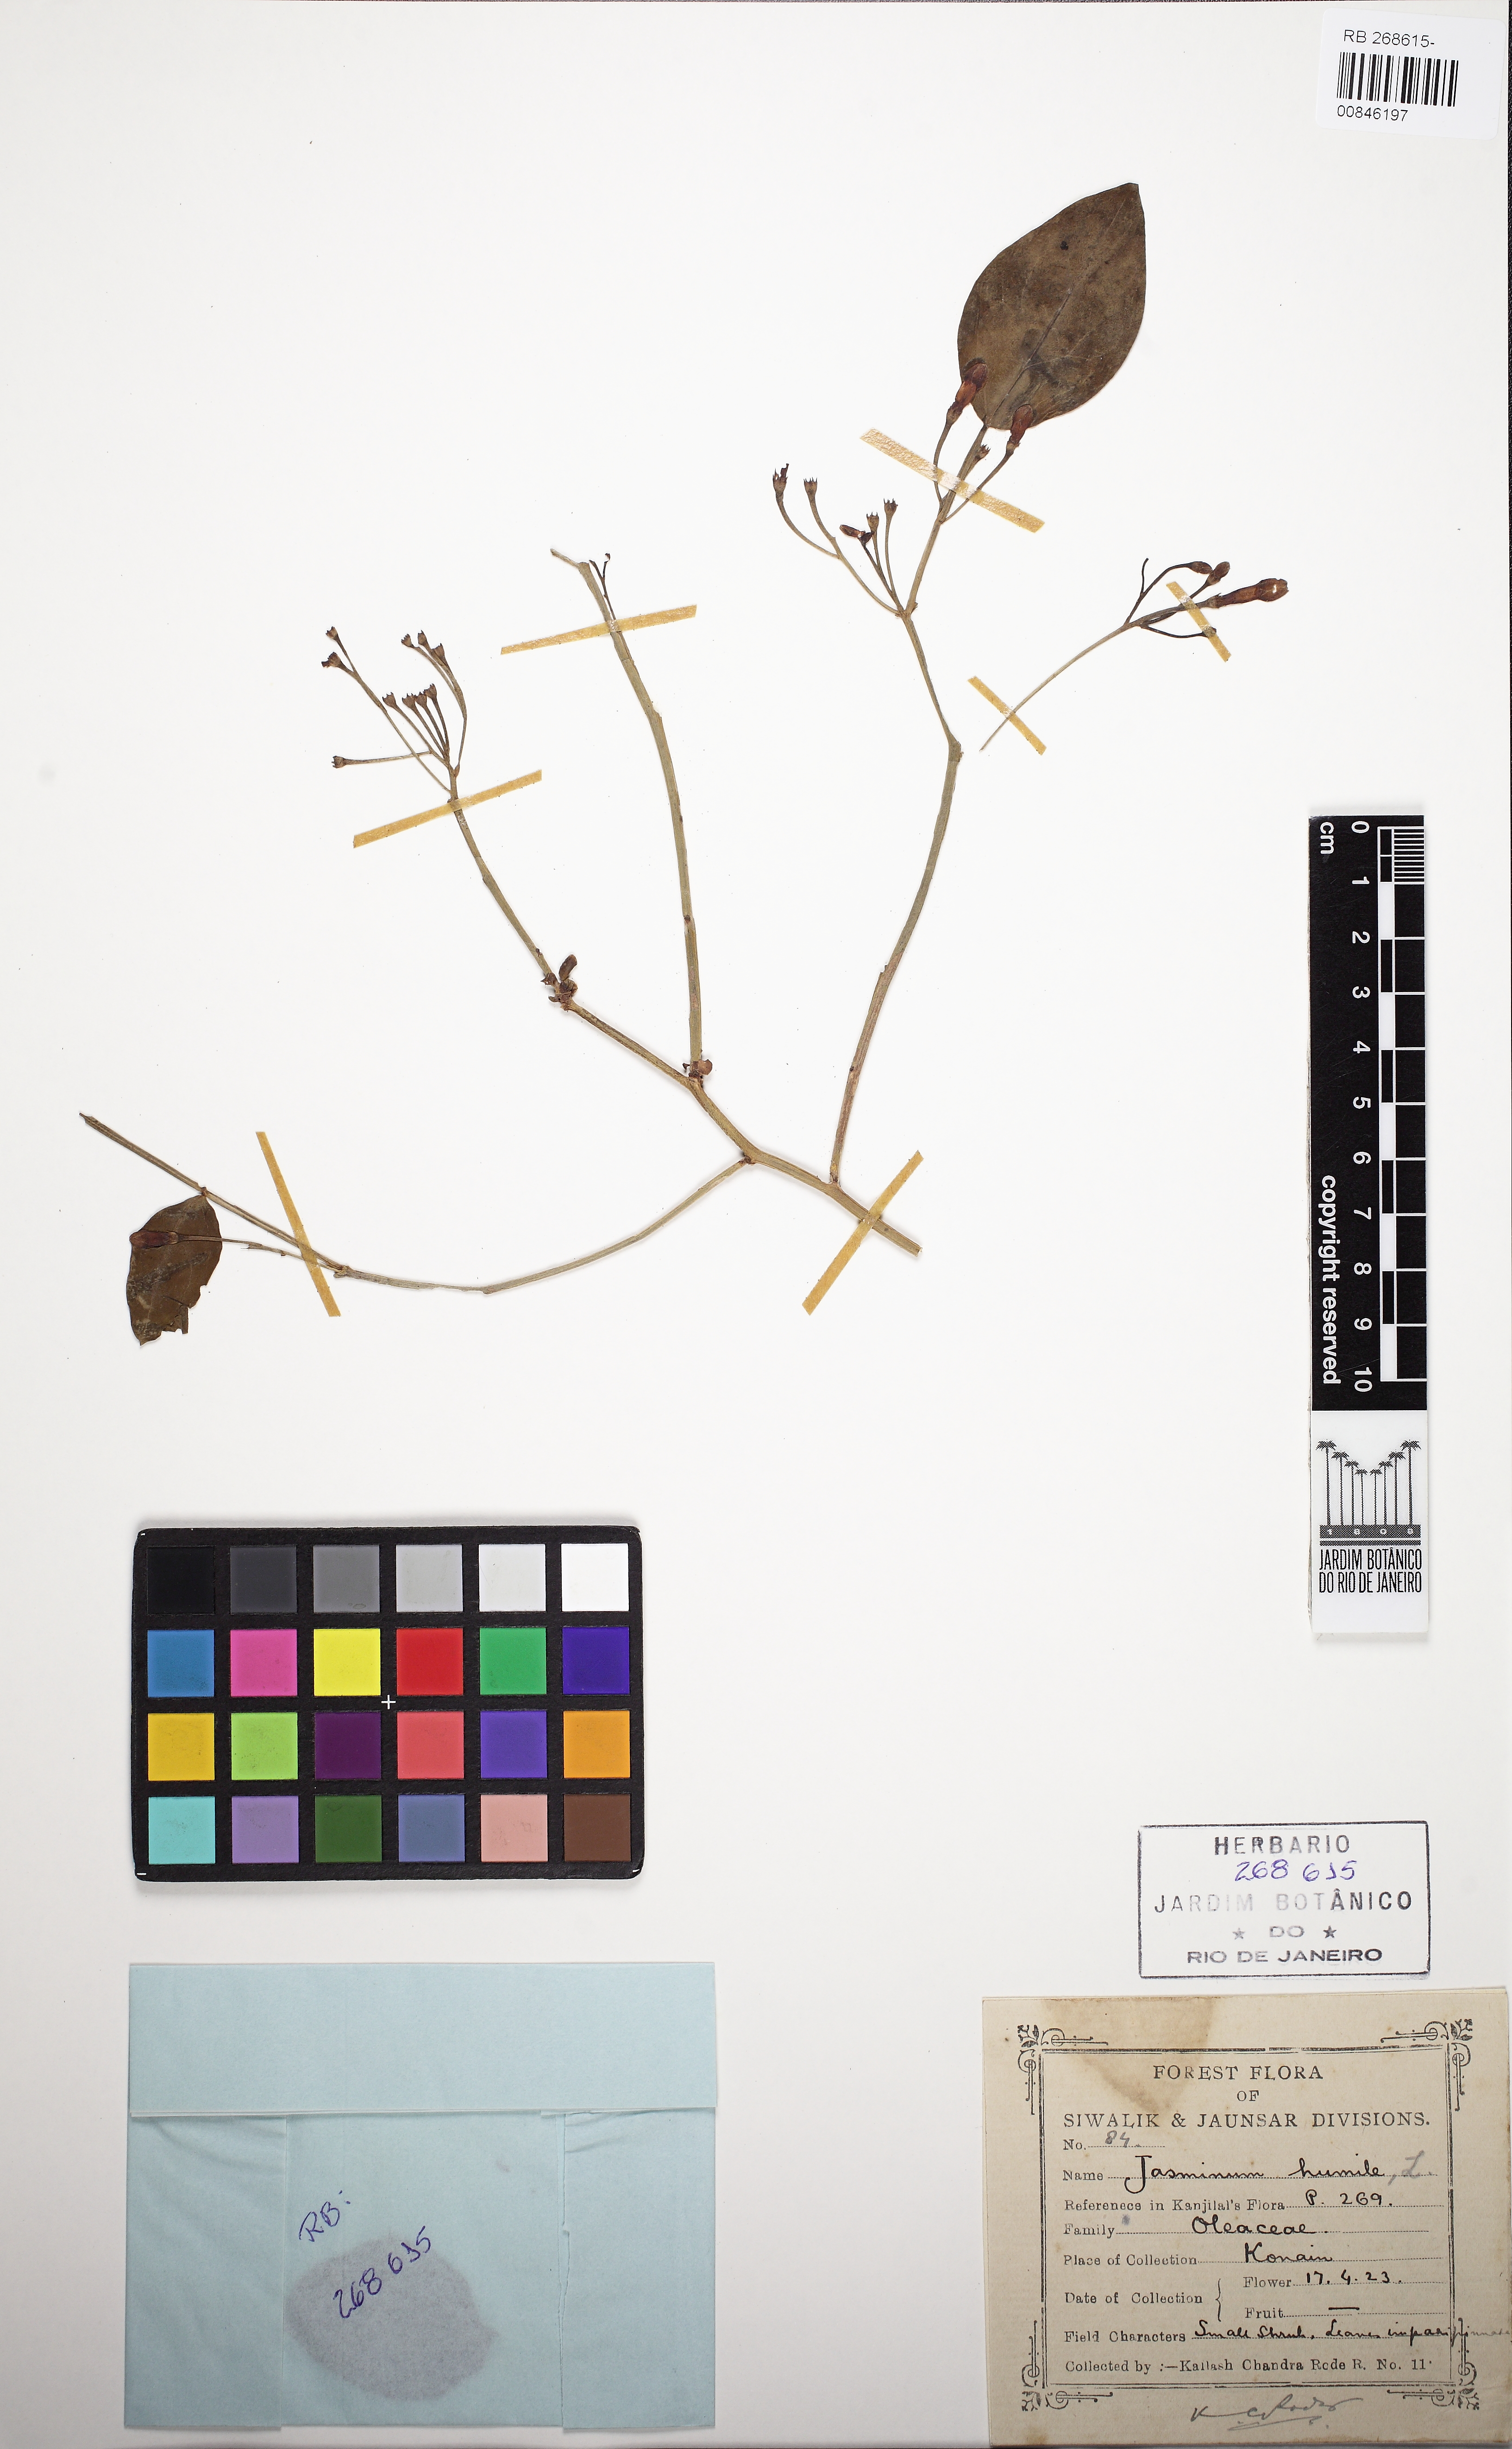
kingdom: Plantae
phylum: Tracheophyta
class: Magnoliopsida
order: Lamiales
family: Oleaceae
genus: Chrysojasminum
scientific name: Chrysojasminum humile
